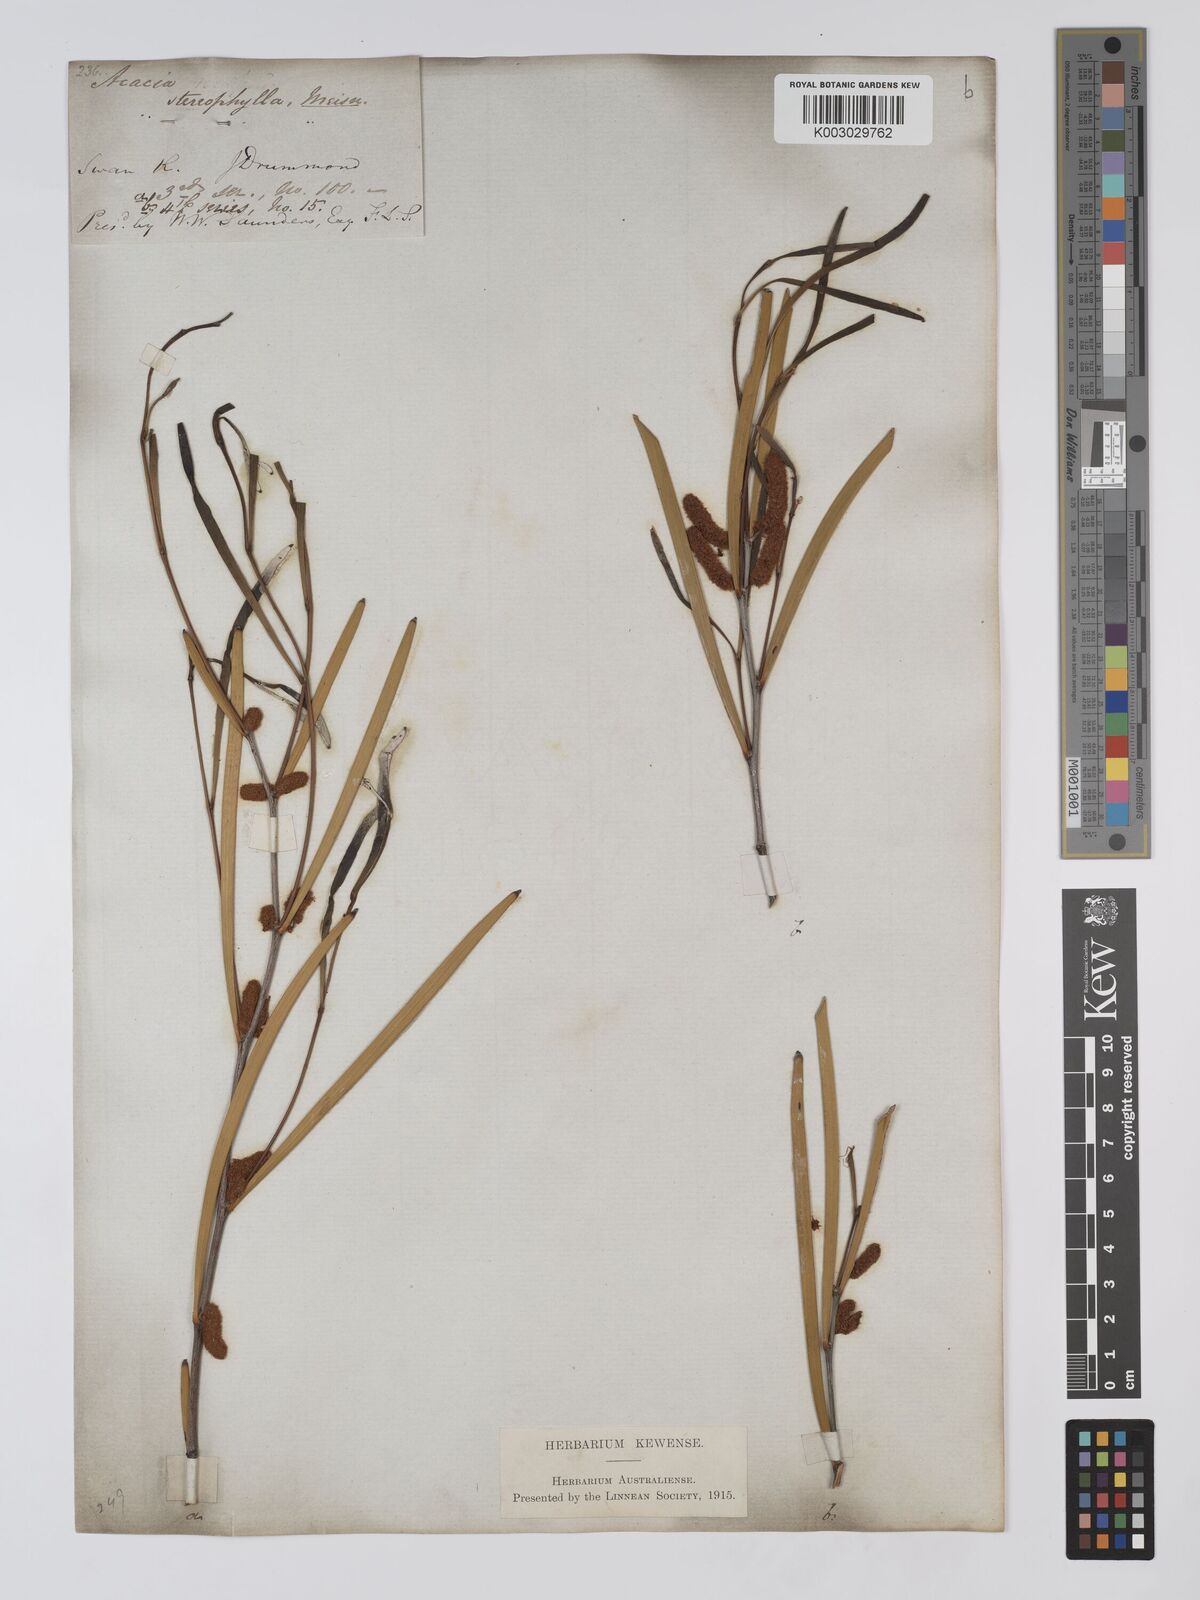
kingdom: Plantae
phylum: Tracheophyta
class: Magnoliopsida
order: Fabales
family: Fabaceae
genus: Acacia
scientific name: Acacia stereophylla
